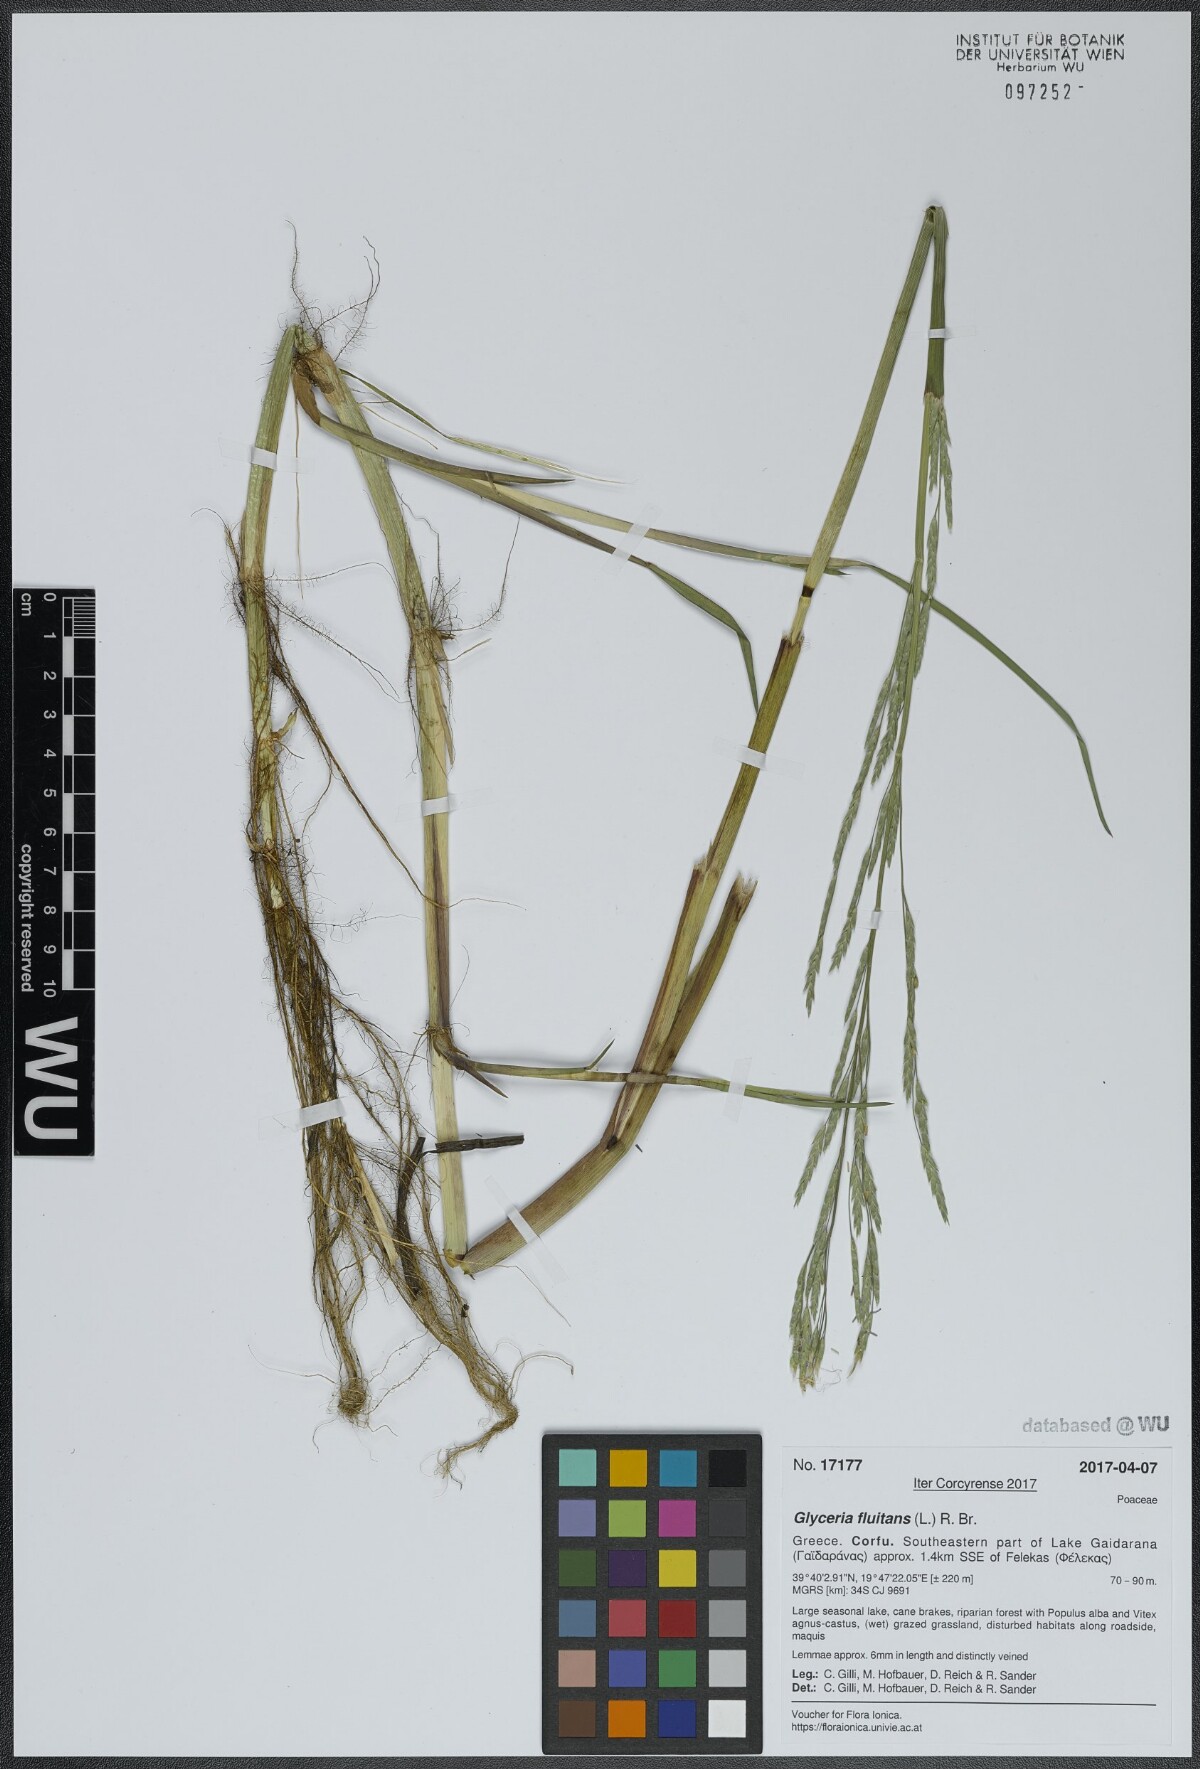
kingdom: Plantae
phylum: Tracheophyta
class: Liliopsida
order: Poales
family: Poaceae
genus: Glyceria
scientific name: Glyceria fluitans
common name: Floating sweet-grass
